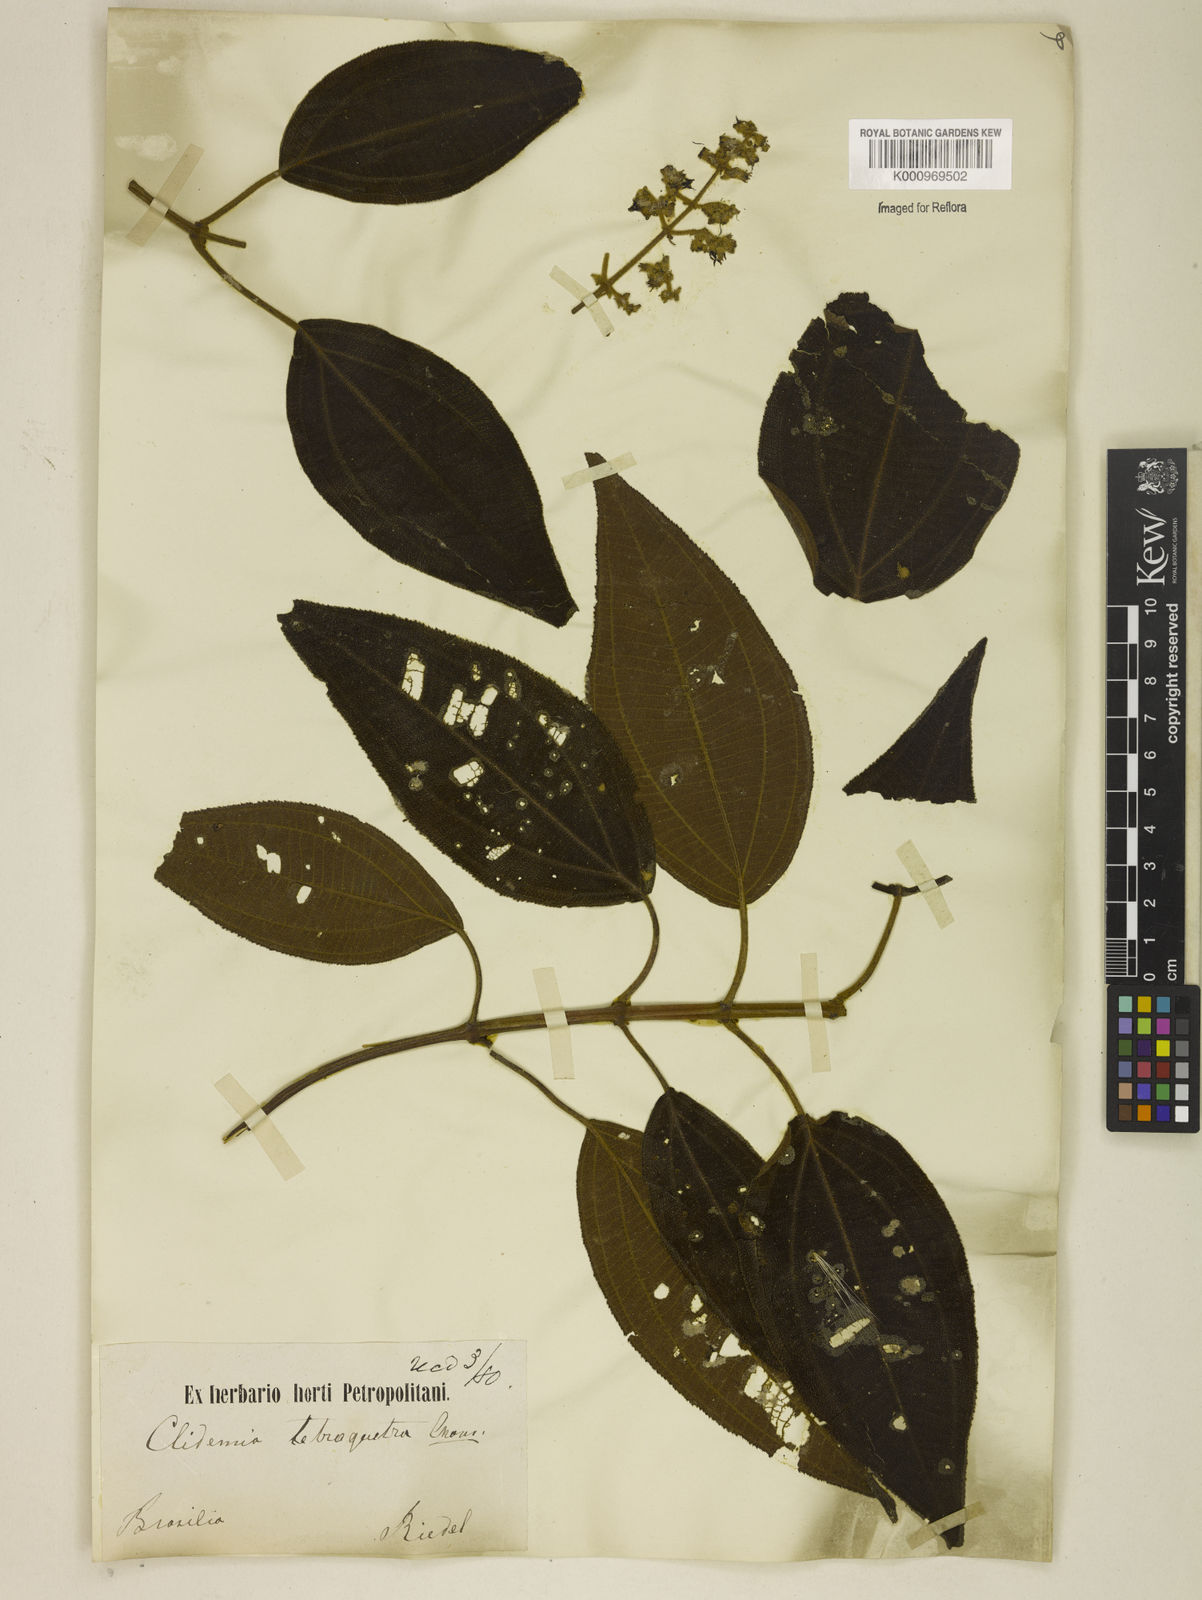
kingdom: Plantae
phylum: Tracheophyta
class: Magnoliopsida
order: Myrtales
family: Melastomataceae
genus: Miconia
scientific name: Miconia tetraquetra
